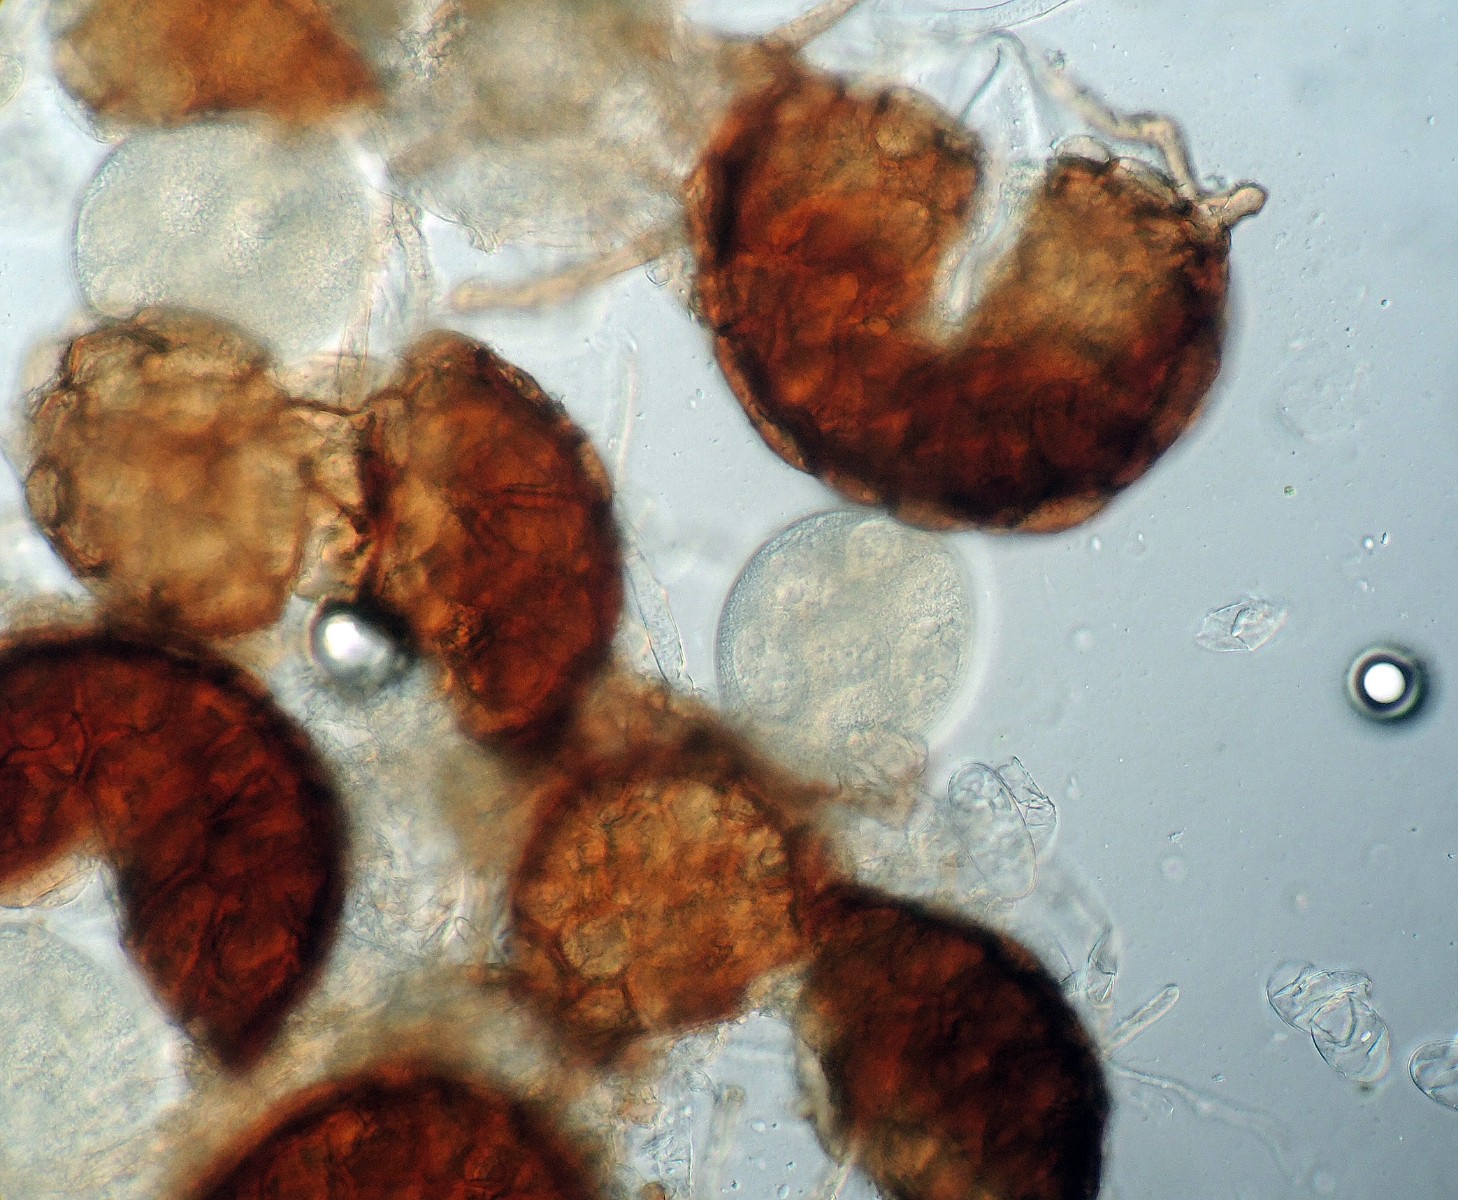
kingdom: Fungi
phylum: Ascomycota
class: Leotiomycetes
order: Helotiales
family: Erysiphaceae
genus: Podosphaera
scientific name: Podosphaera fusca
